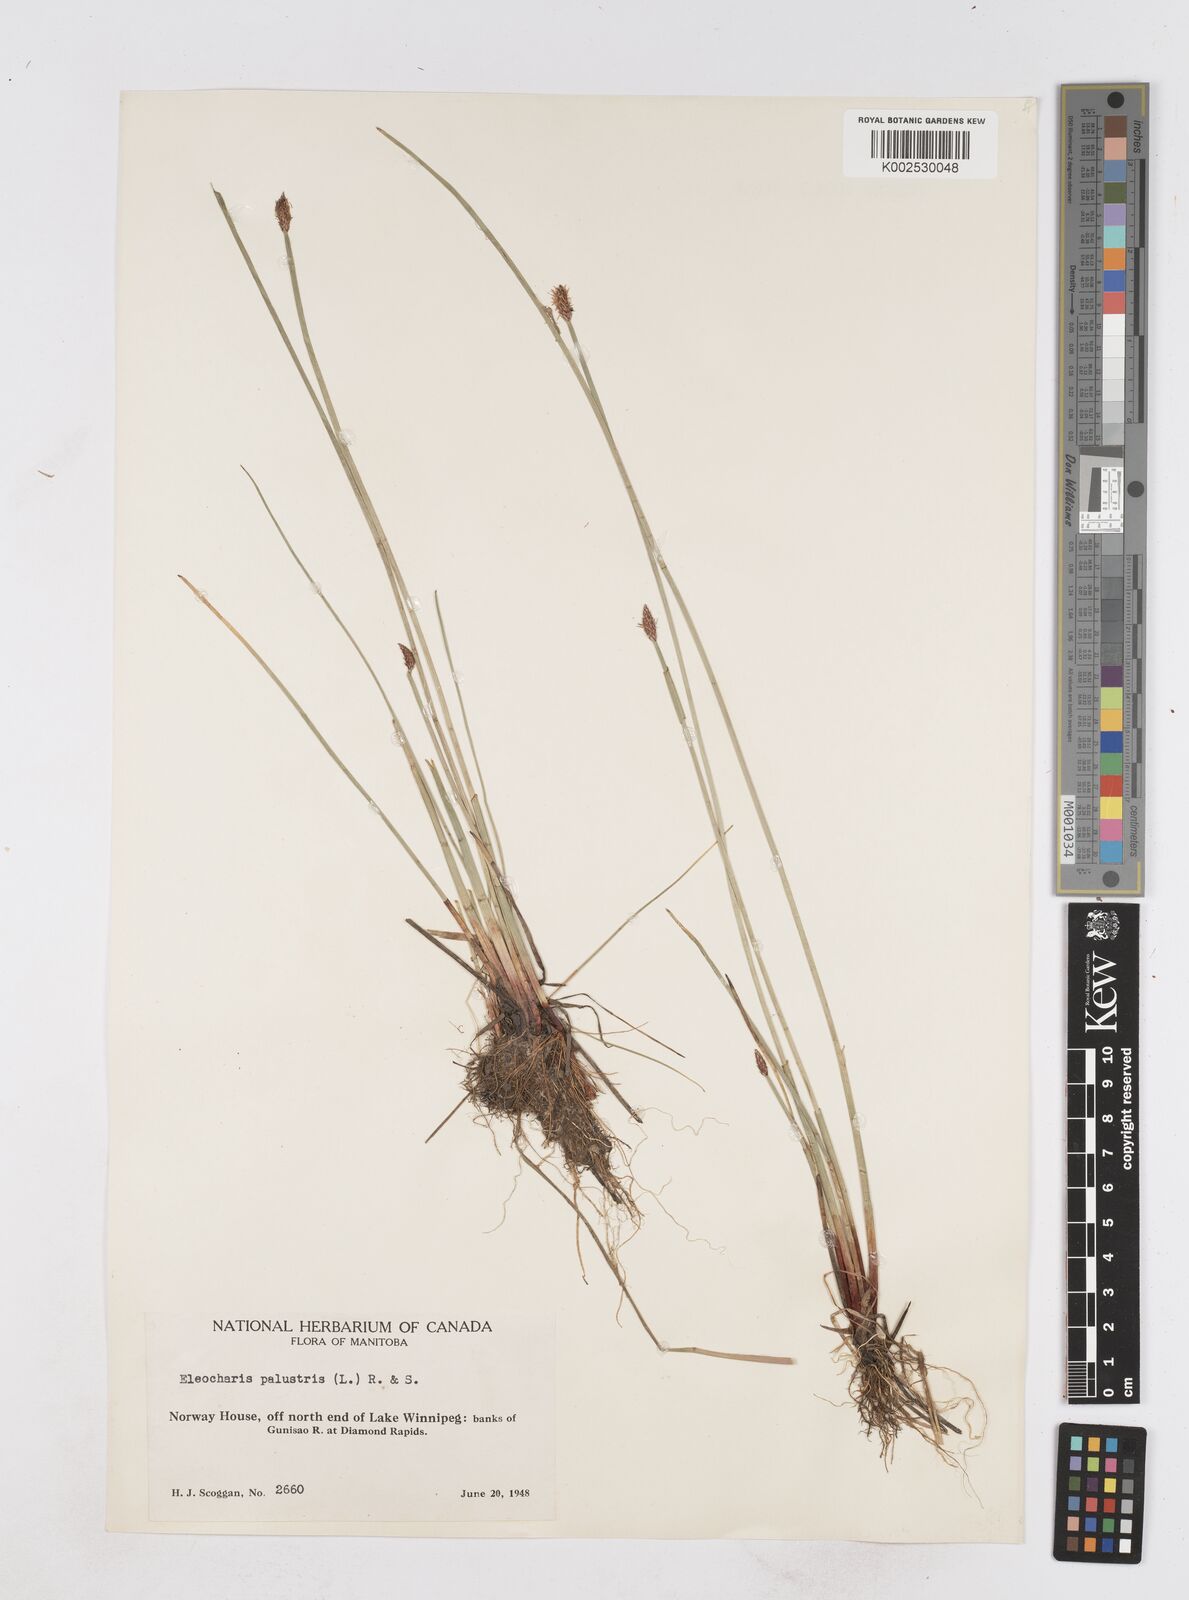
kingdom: Plantae
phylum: Tracheophyta
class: Liliopsida
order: Poales
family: Cyperaceae
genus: Eleocharis
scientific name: Eleocharis palustris
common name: Common spike-rush
